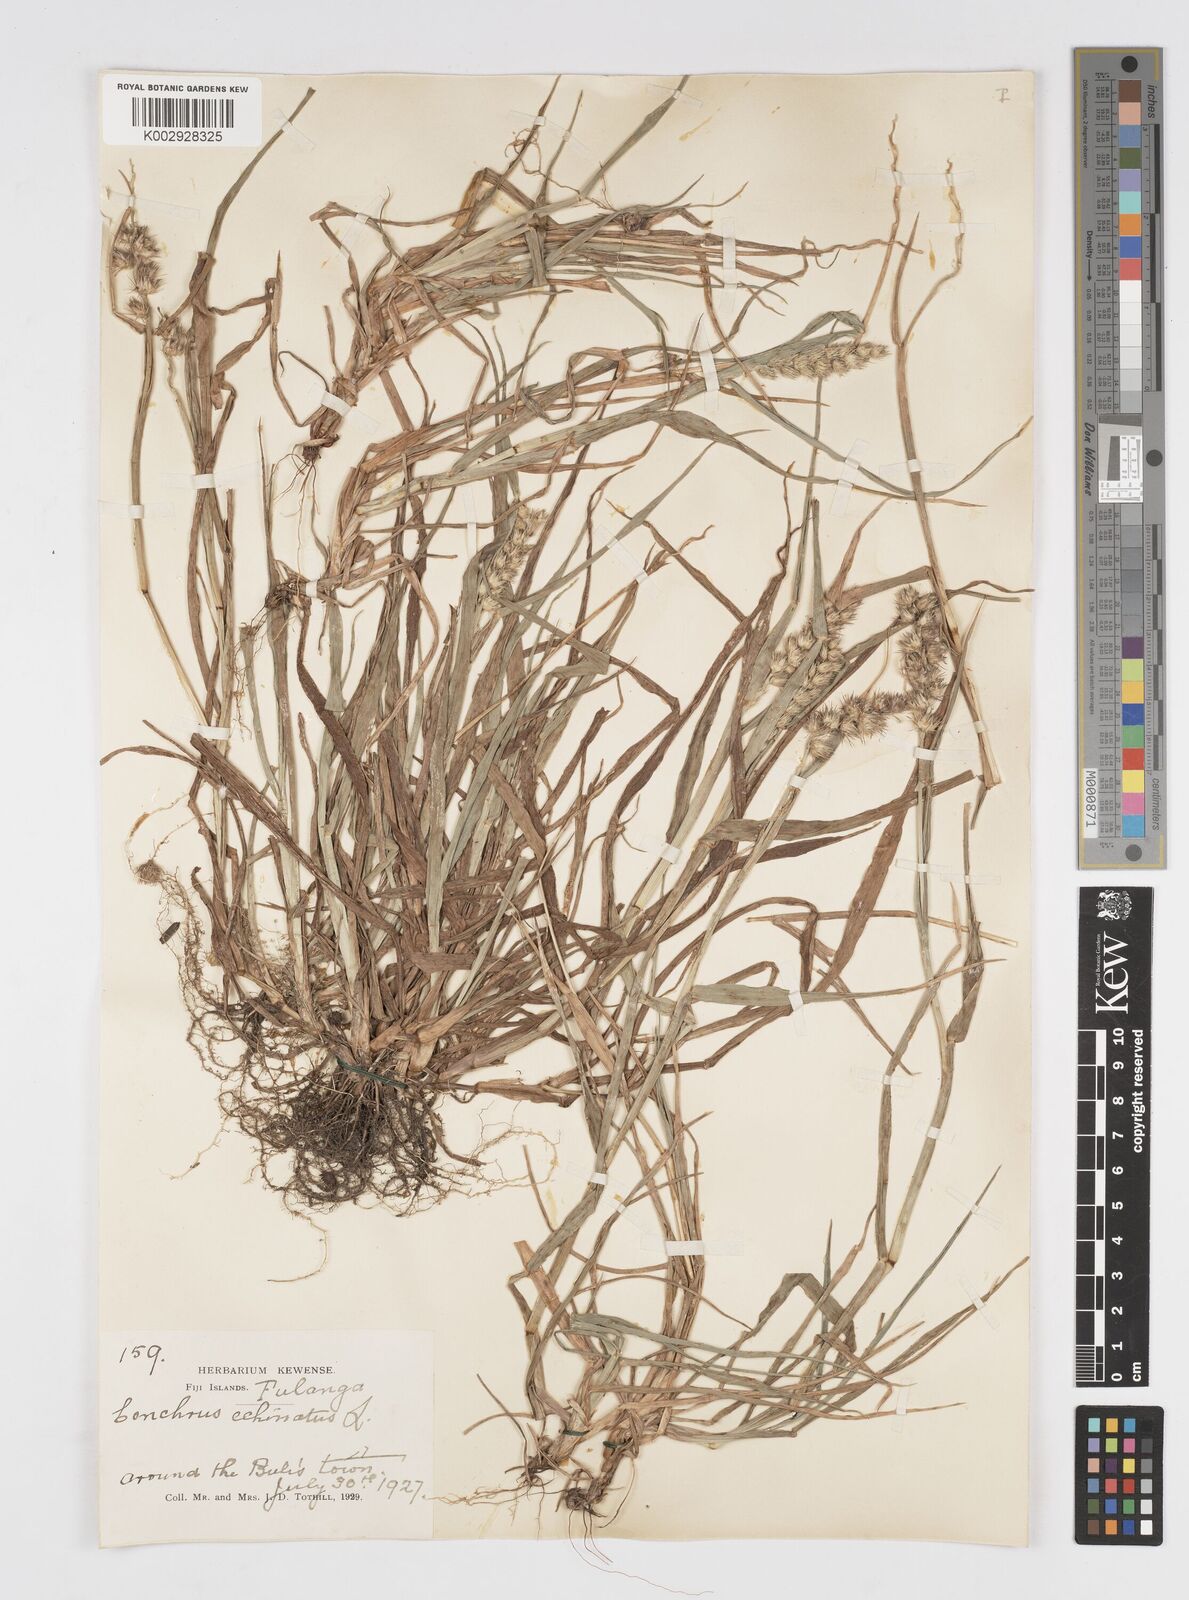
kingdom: Plantae
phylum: Tracheophyta
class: Liliopsida
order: Poales
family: Poaceae
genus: Cenchrus
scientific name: Cenchrus echinatus
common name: Southern sandbur
